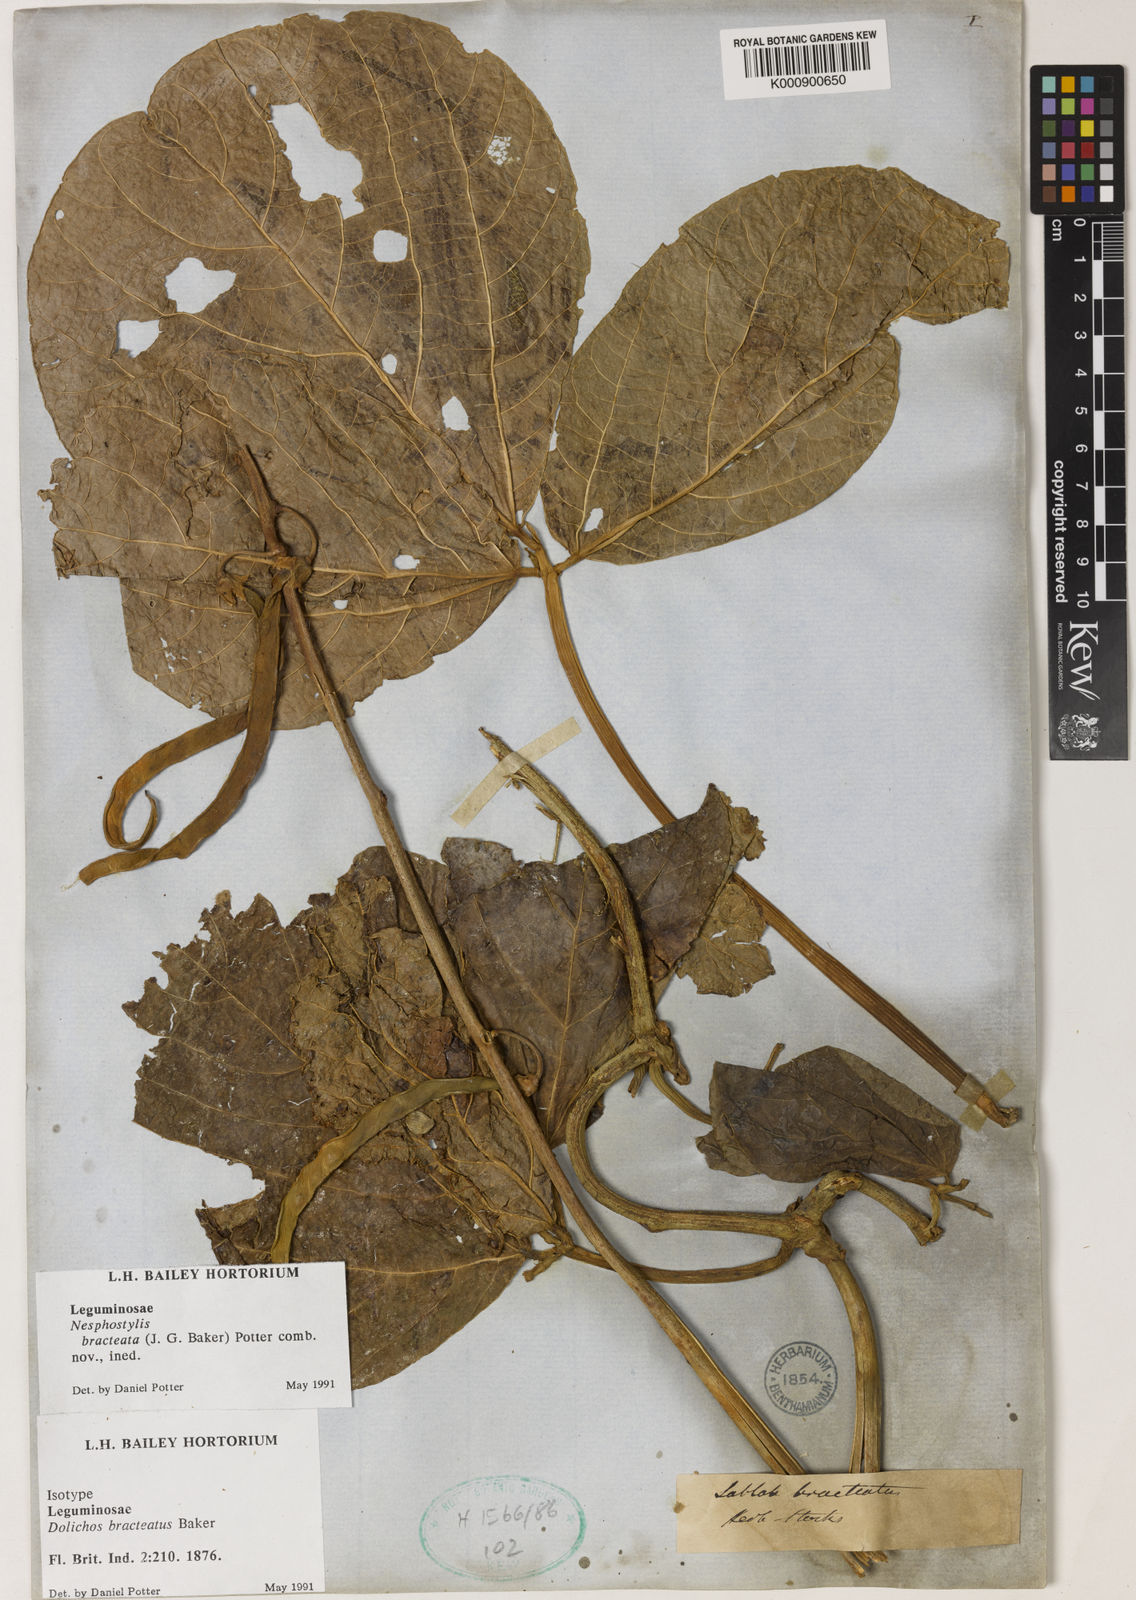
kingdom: Plantae
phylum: Tracheophyta
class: Magnoliopsida
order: Fabales
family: Fabaceae
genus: Lablab
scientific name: Lablab purpureus
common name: Lablab-bean
